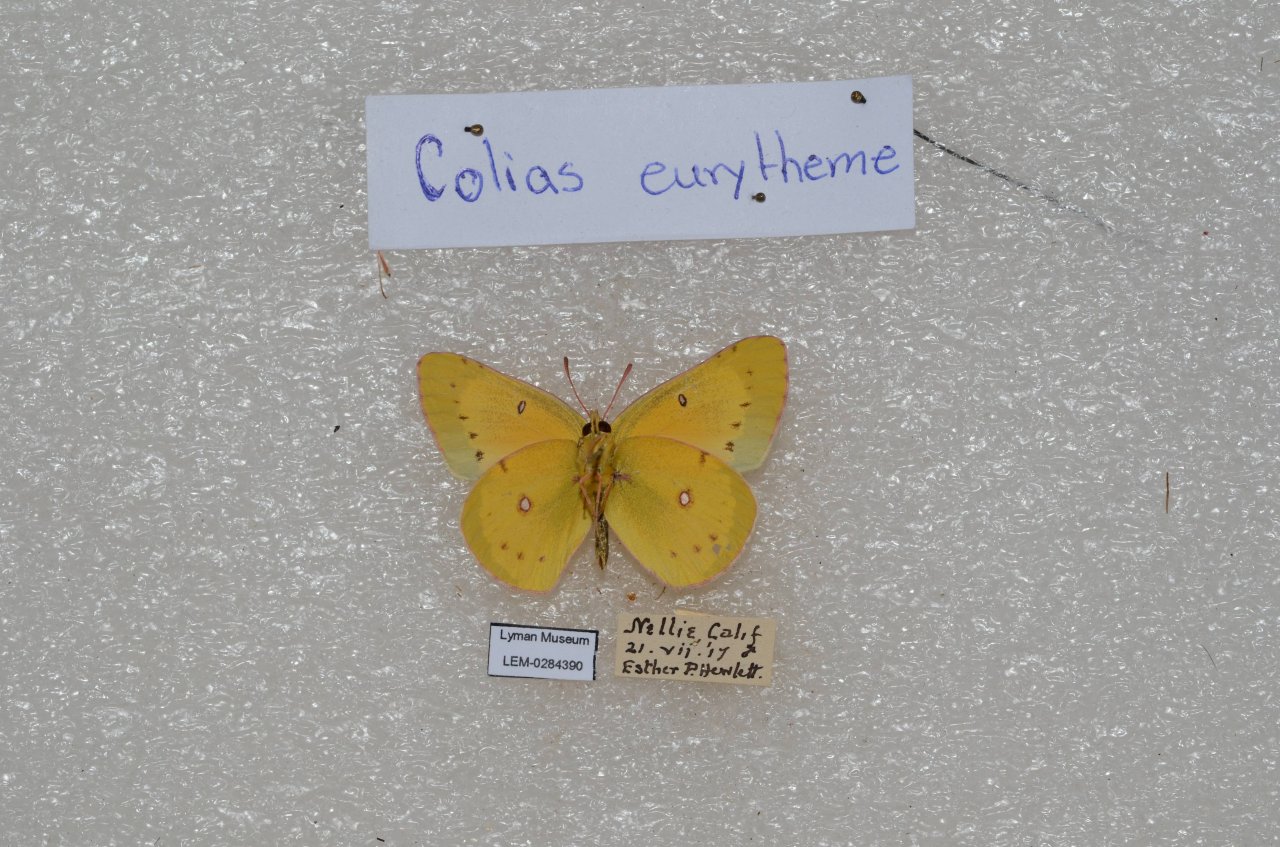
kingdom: Animalia
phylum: Arthropoda
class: Insecta
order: Lepidoptera
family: Pieridae
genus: Colias
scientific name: Colias eurytheme
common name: Orange Sulphur
